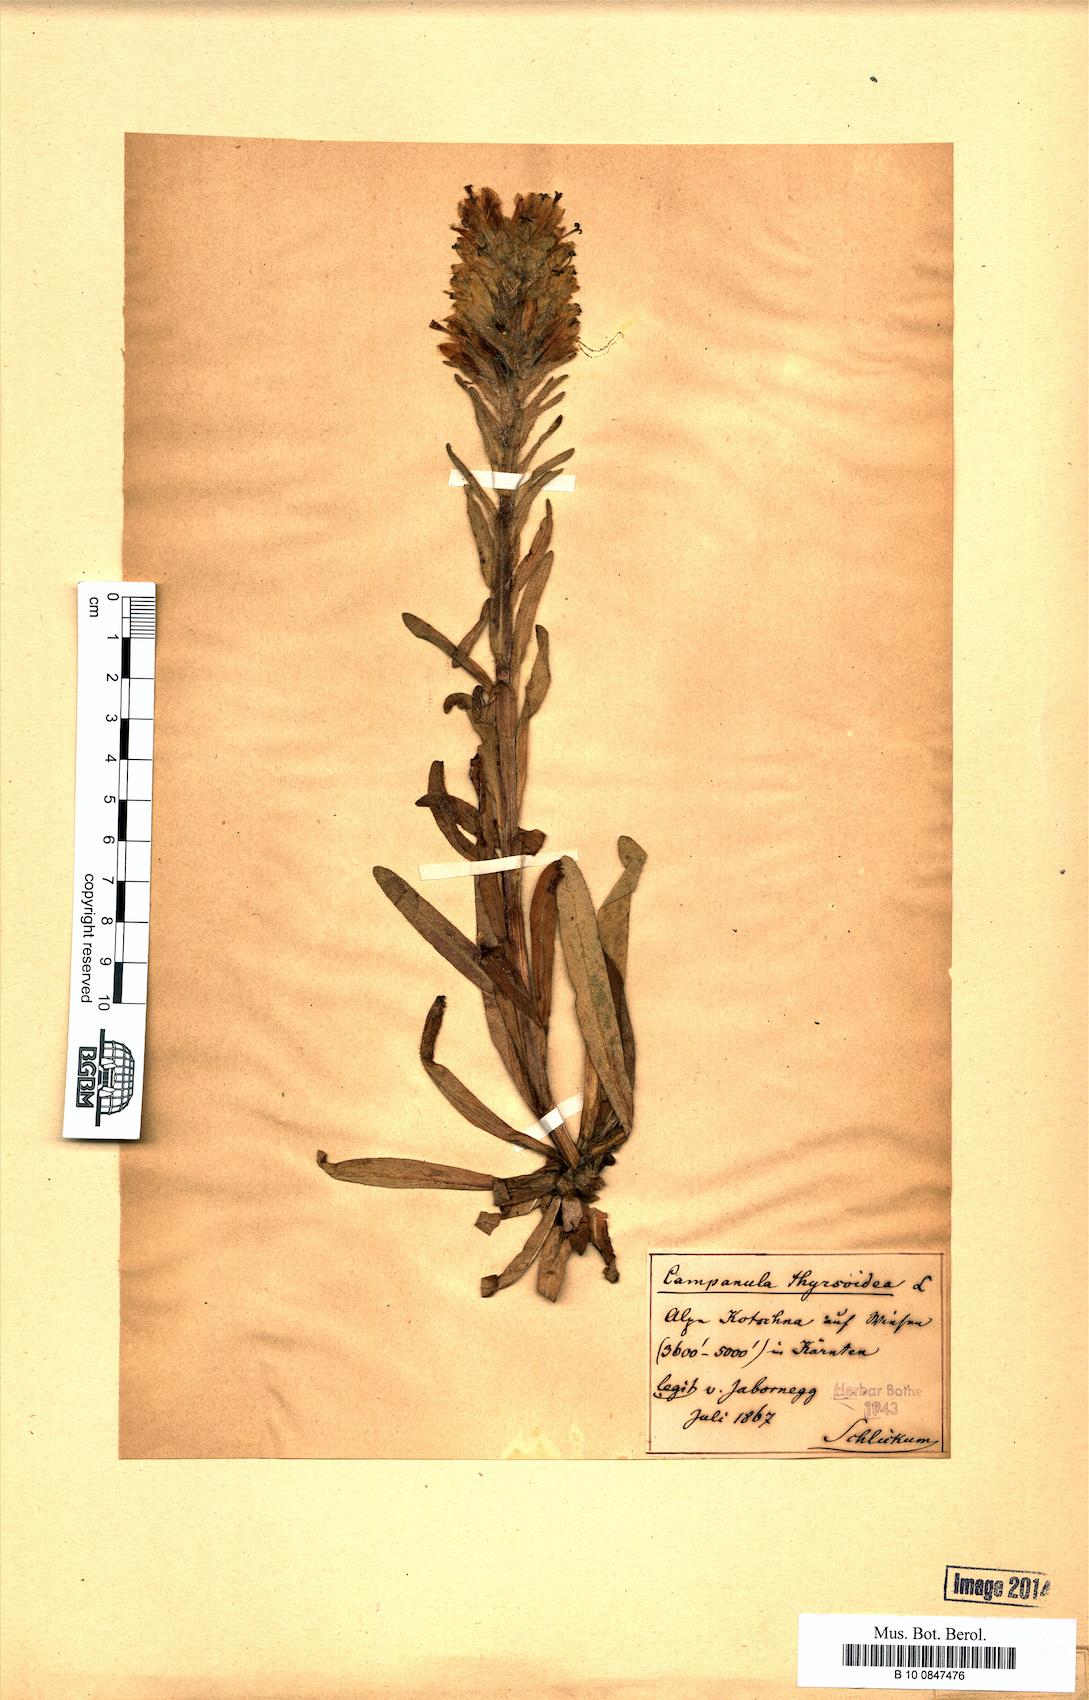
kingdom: Plantae
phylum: Tracheophyta
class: Magnoliopsida
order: Asterales
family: Campanulaceae
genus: Campanula
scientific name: Campanula thyrsoides
